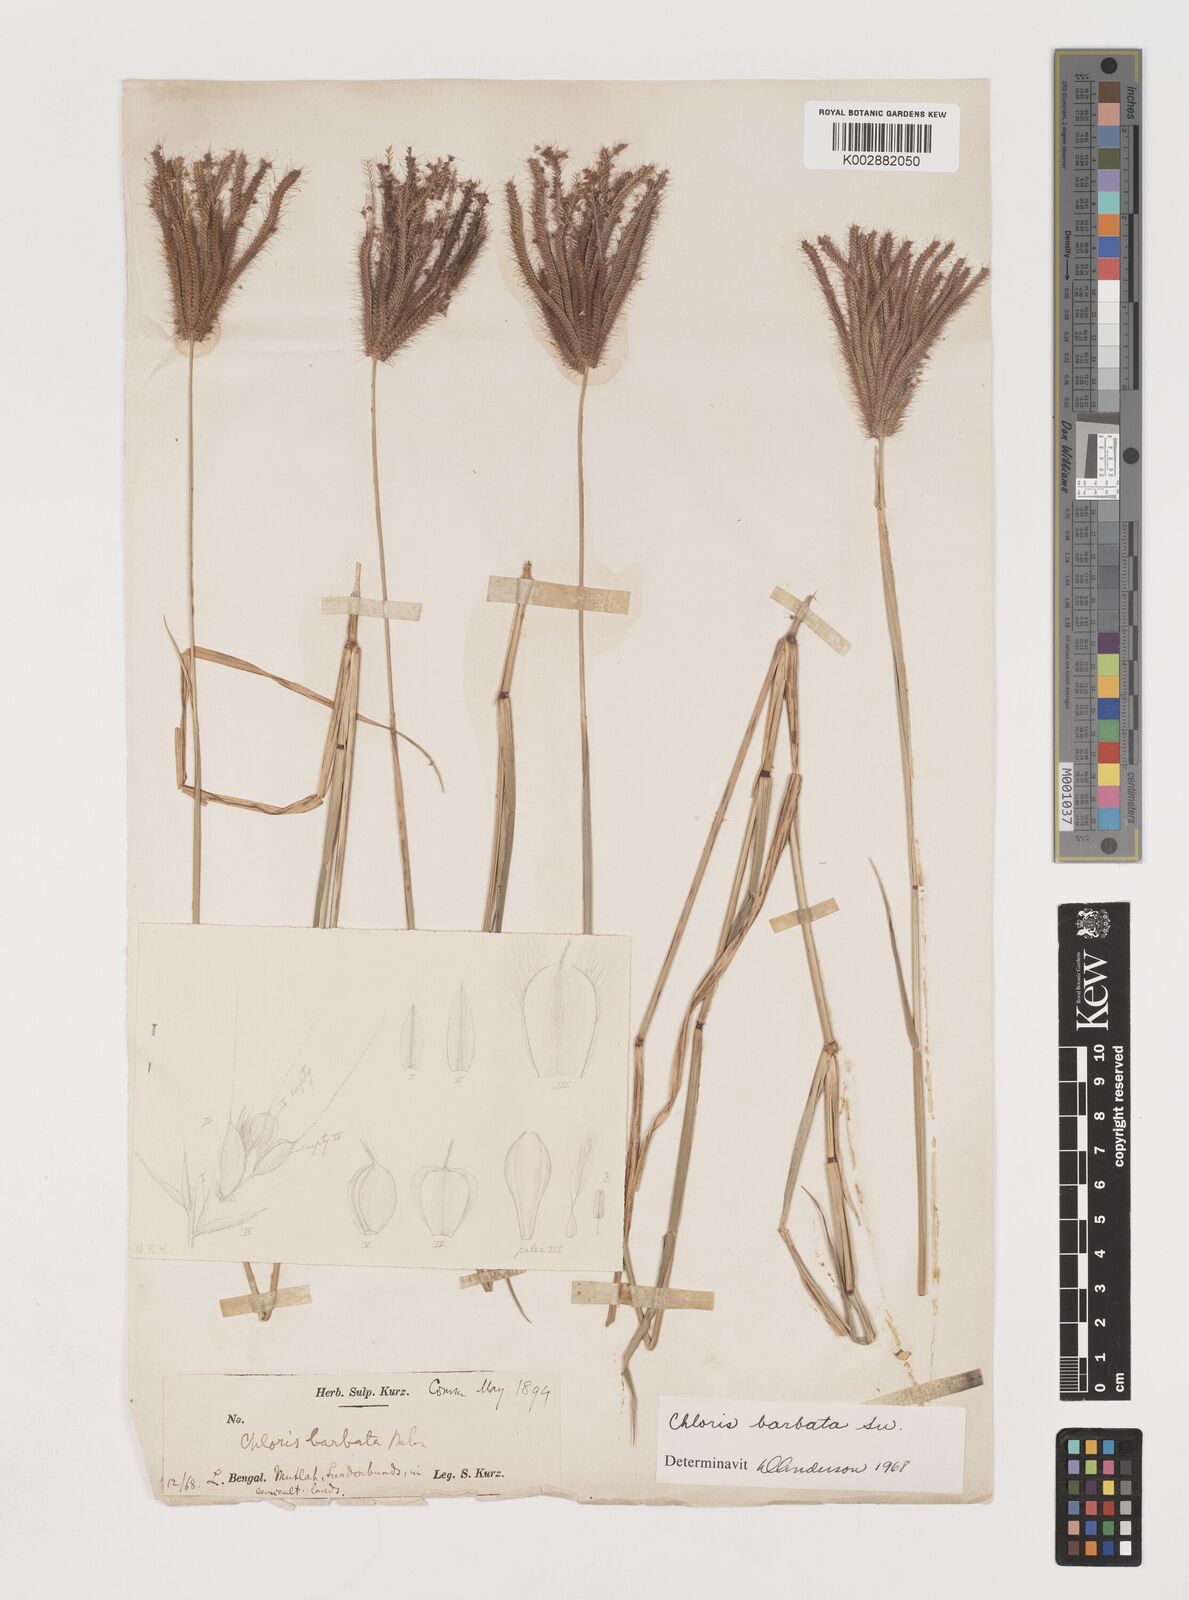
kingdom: Plantae
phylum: Tracheophyta
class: Liliopsida
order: Poales
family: Poaceae
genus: Chloris
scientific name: Chloris barbata
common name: Swollen fingergrass
